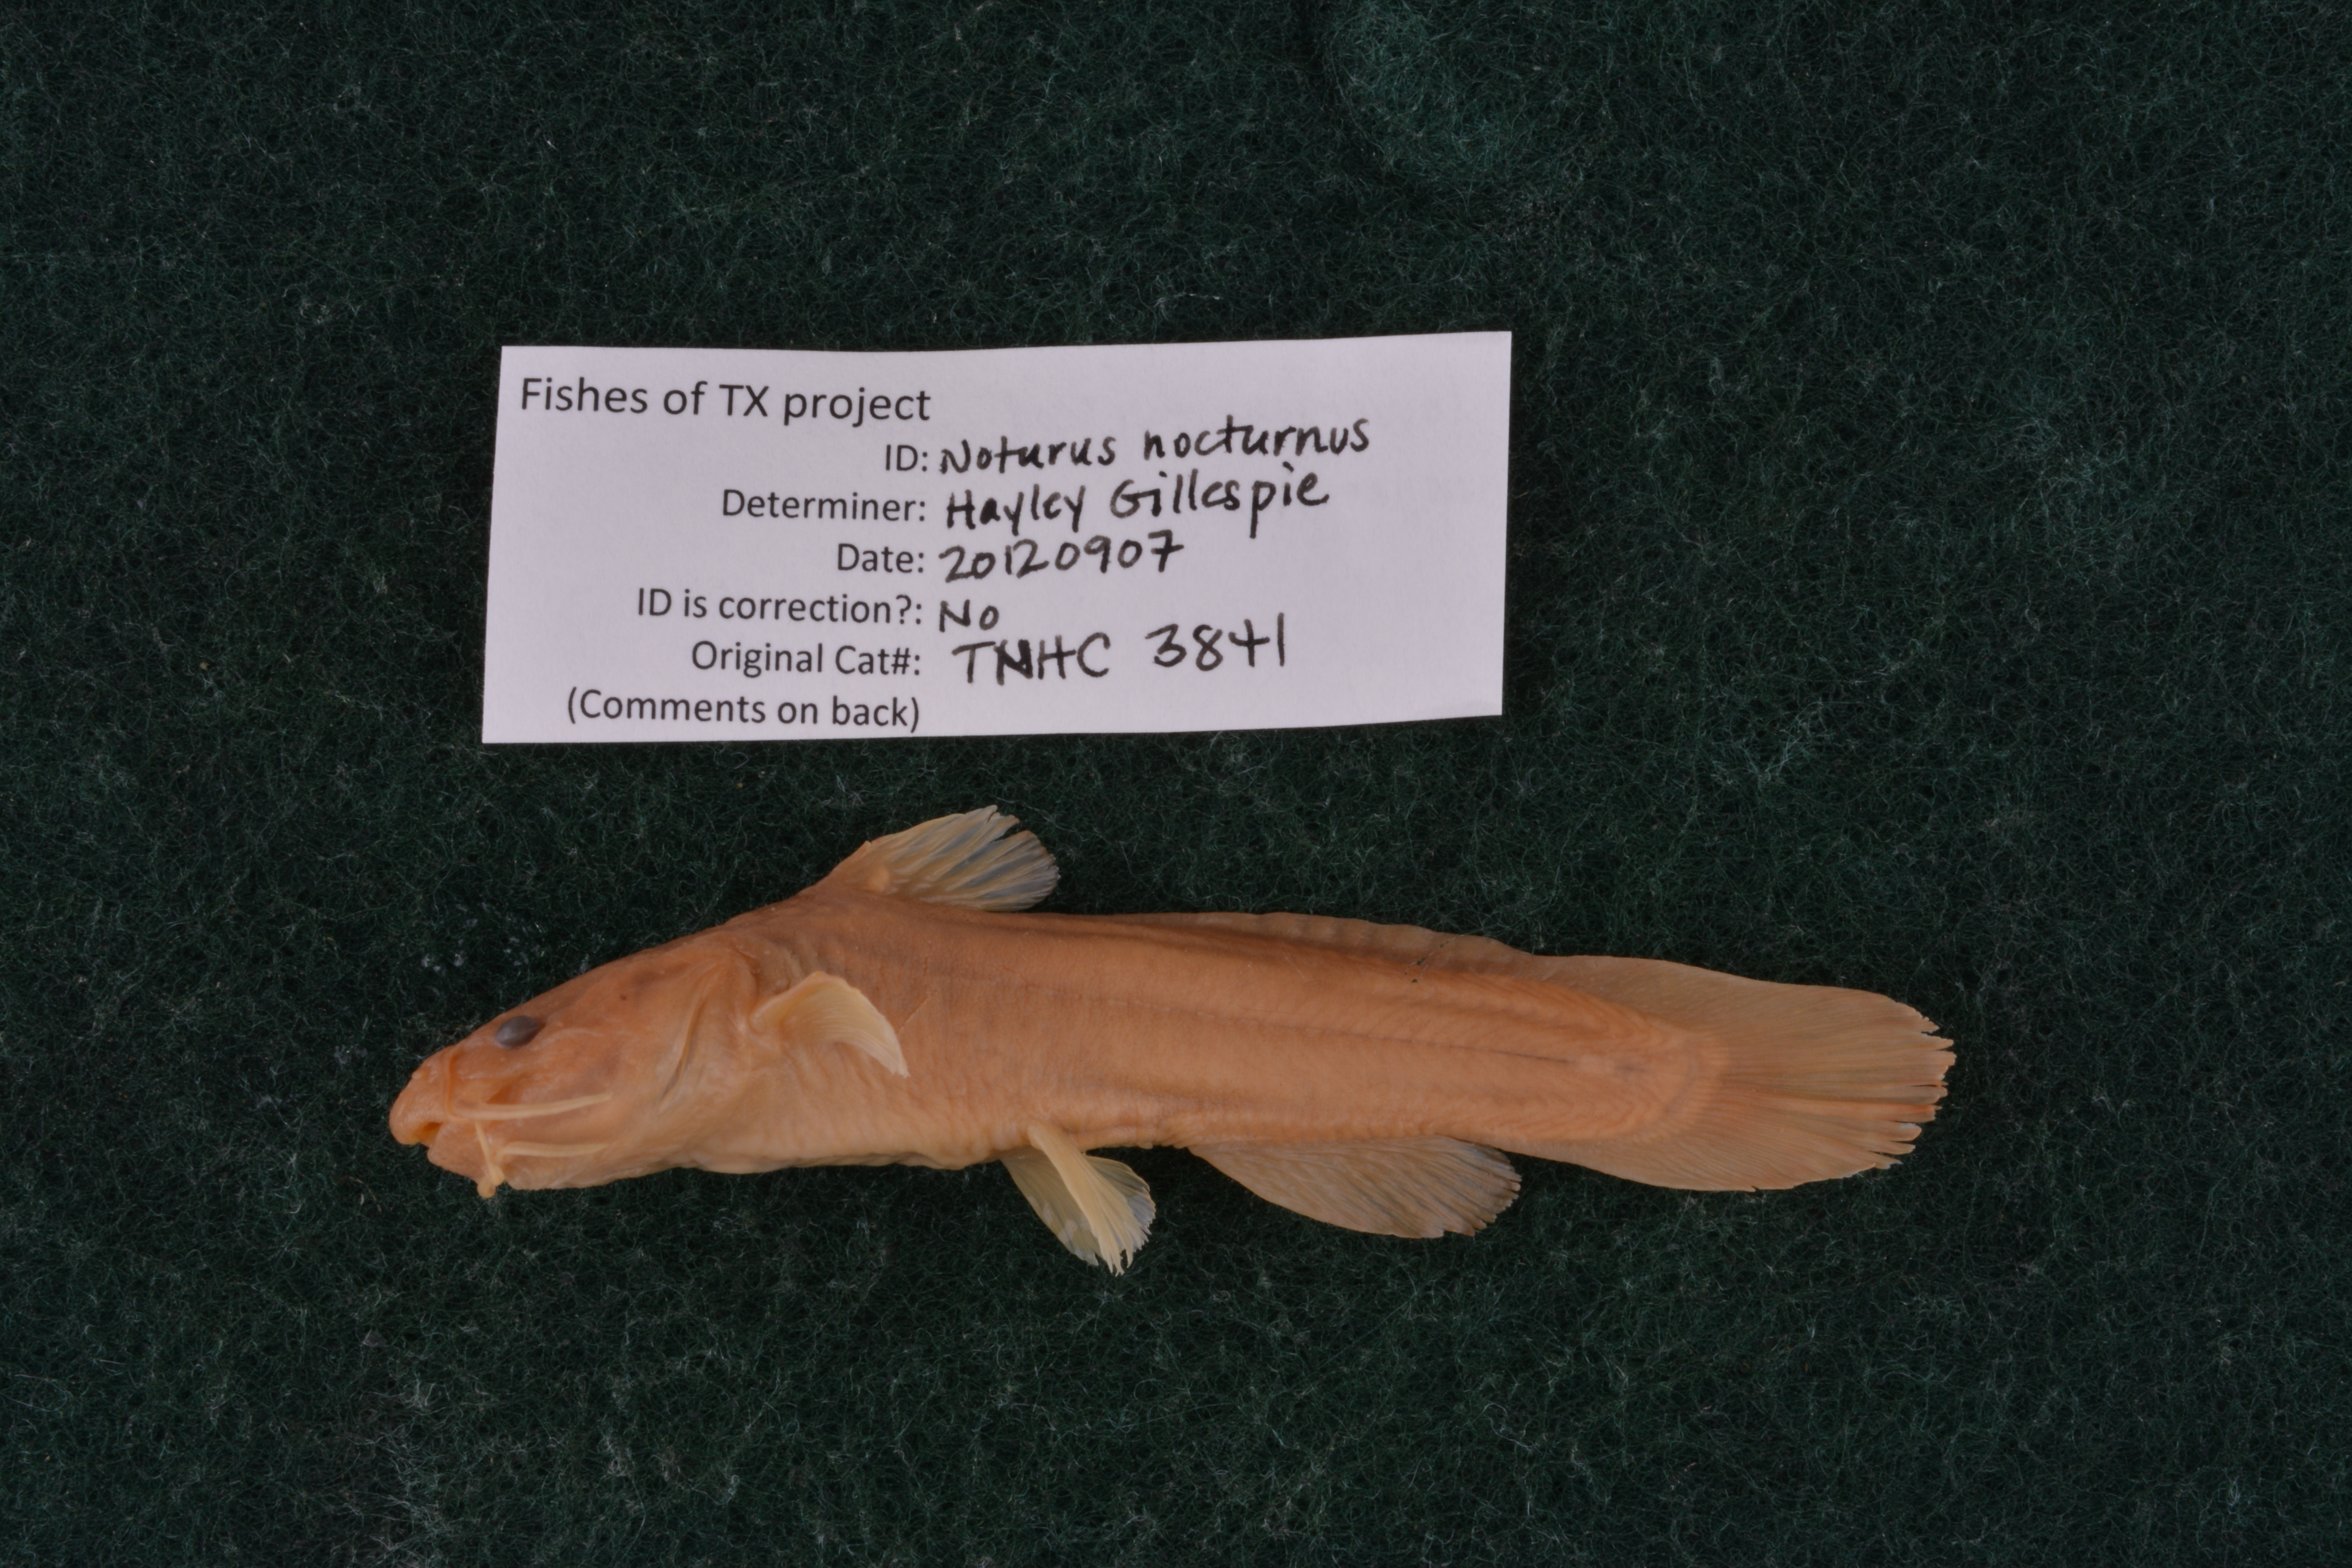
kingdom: Animalia
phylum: Chordata
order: Siluriformes
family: Ictaluridae
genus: Noturus
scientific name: Noturus nocturnus
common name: Freckled madtom
